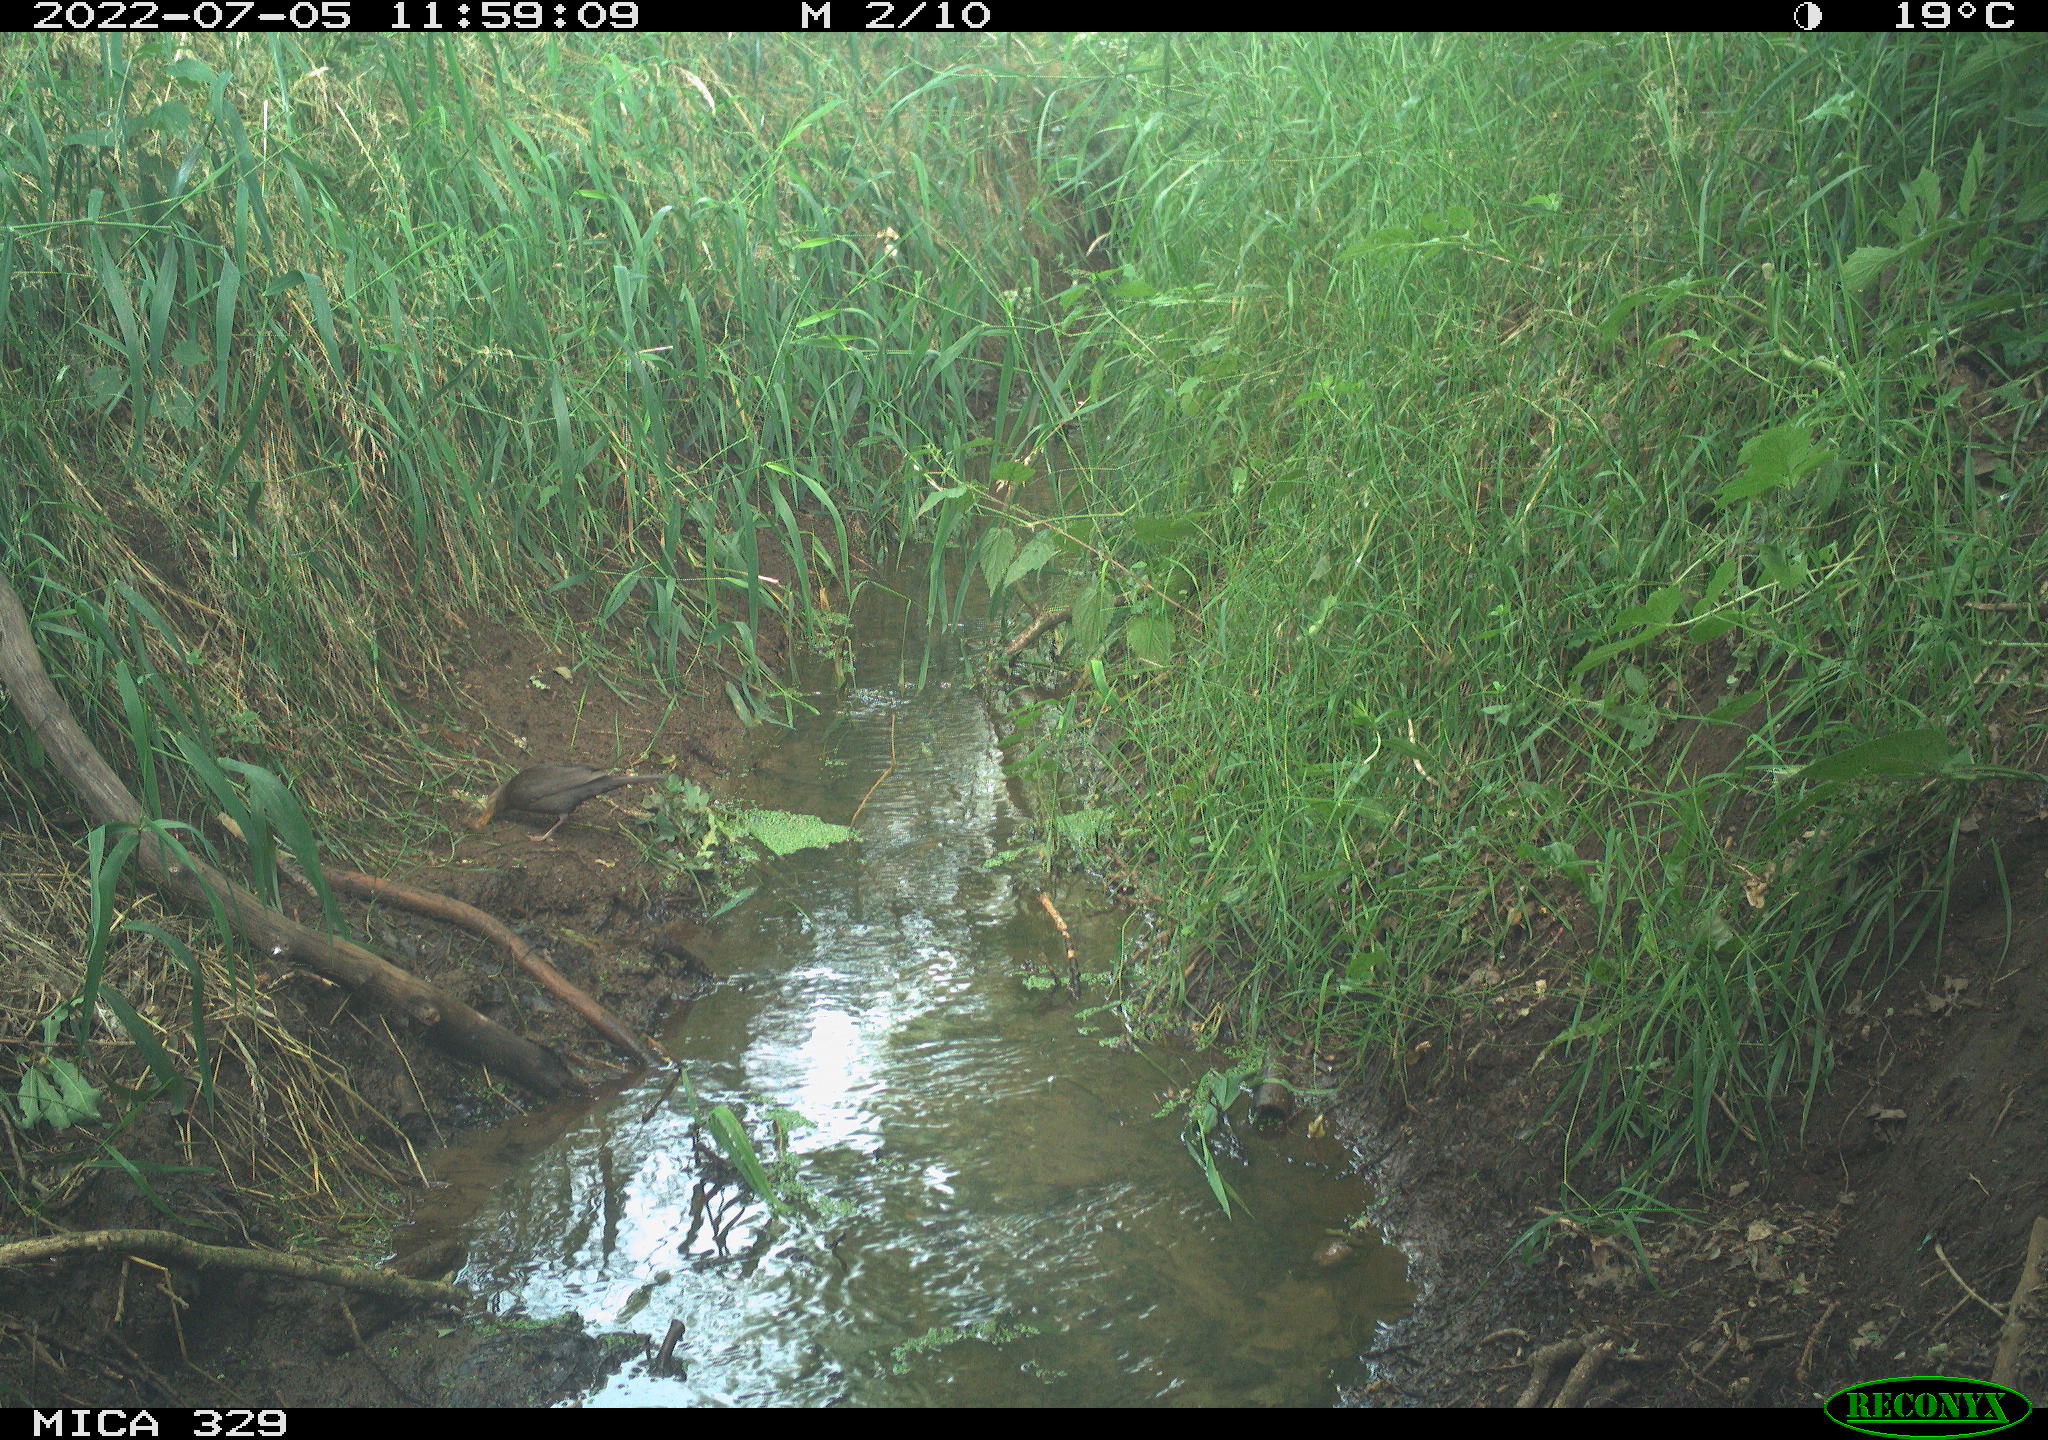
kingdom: Animalia
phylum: Chordata
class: Aves
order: Passeriformes
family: Turdidae
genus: Turdus
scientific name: Turdus merula
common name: Common blackbird
